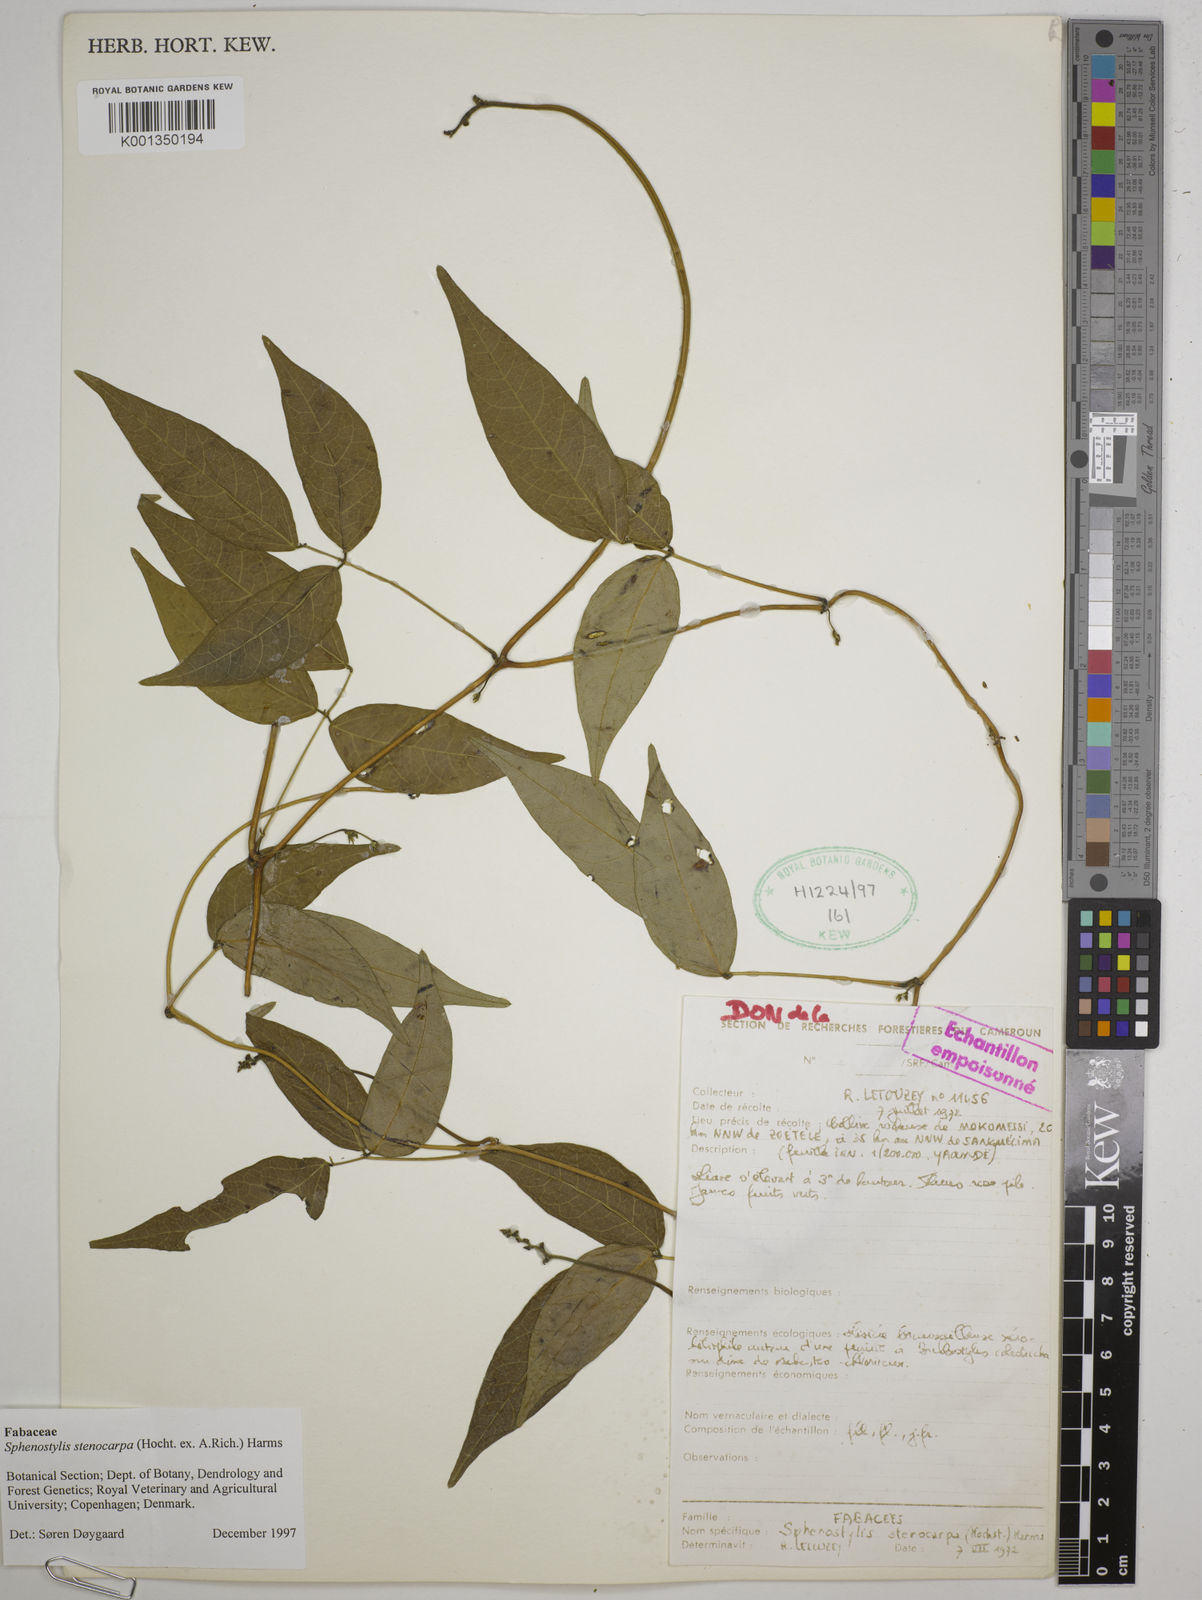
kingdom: Plantae
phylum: Tracheophyta
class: Magnoliopsida
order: Fabales
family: Fabaceae
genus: Sphenostylis
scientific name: Sphenostylis stenocarpa
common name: Yam-pea
